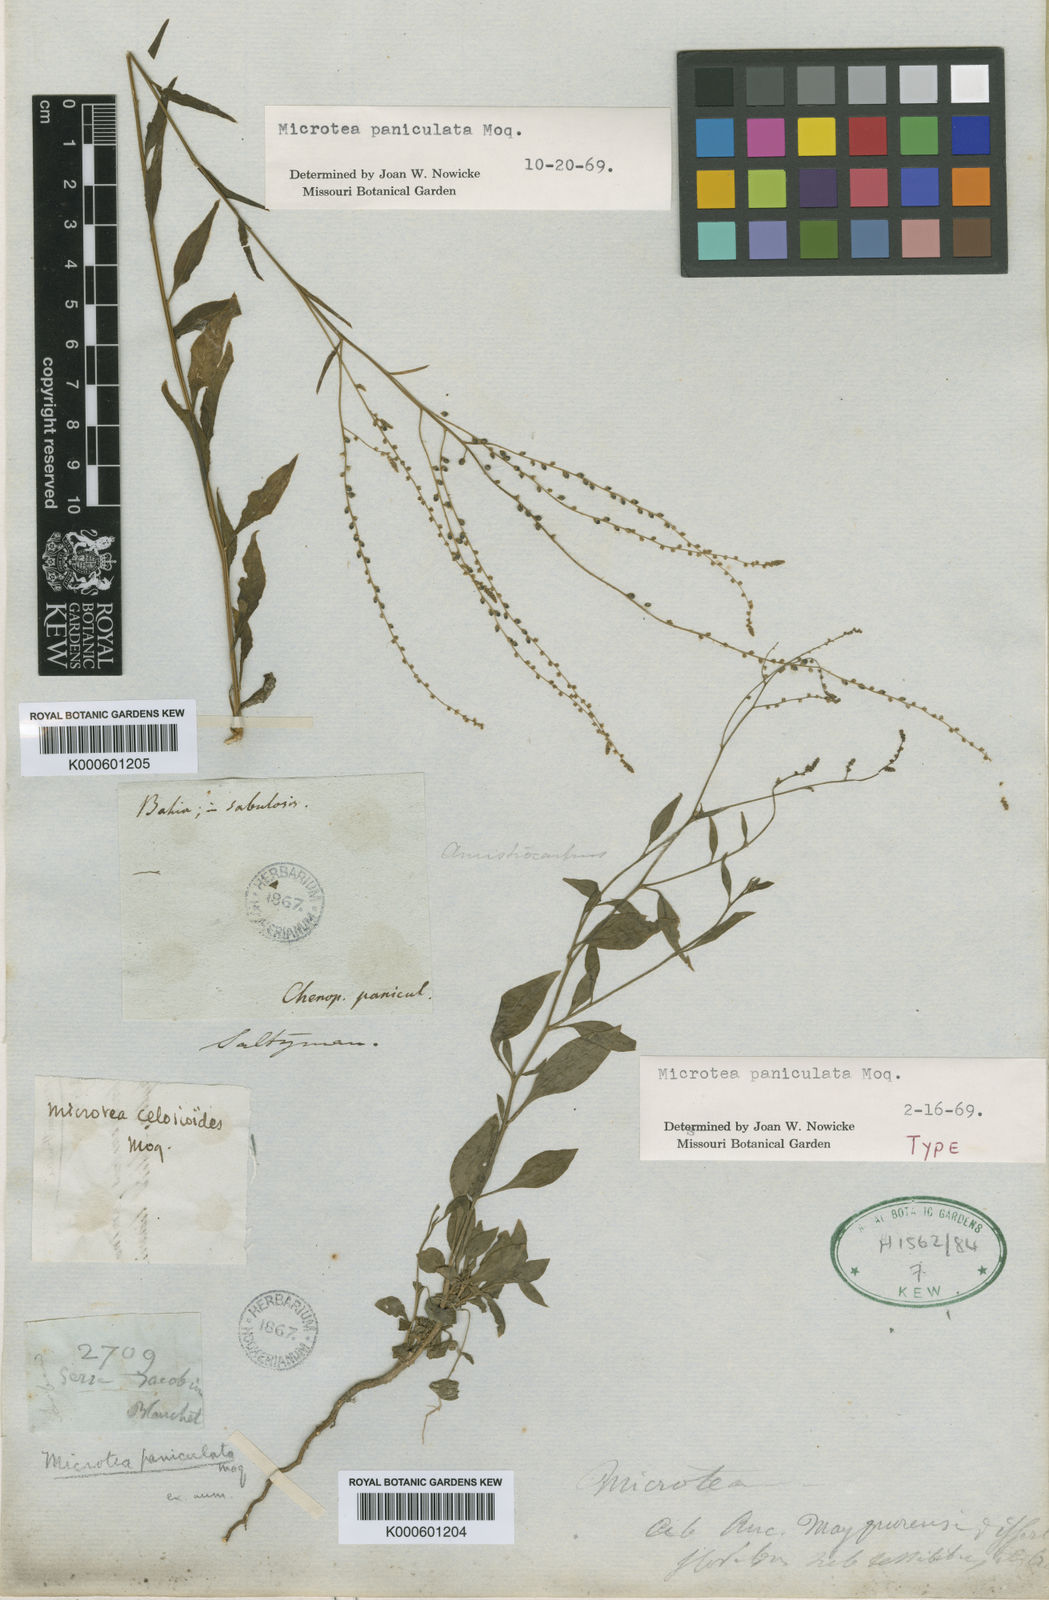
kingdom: Plantae
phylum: Tracheophyta
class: Magnoliopsida
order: Caryophyllales
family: Microteaceae
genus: Microtea
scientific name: Microtea paniculata
